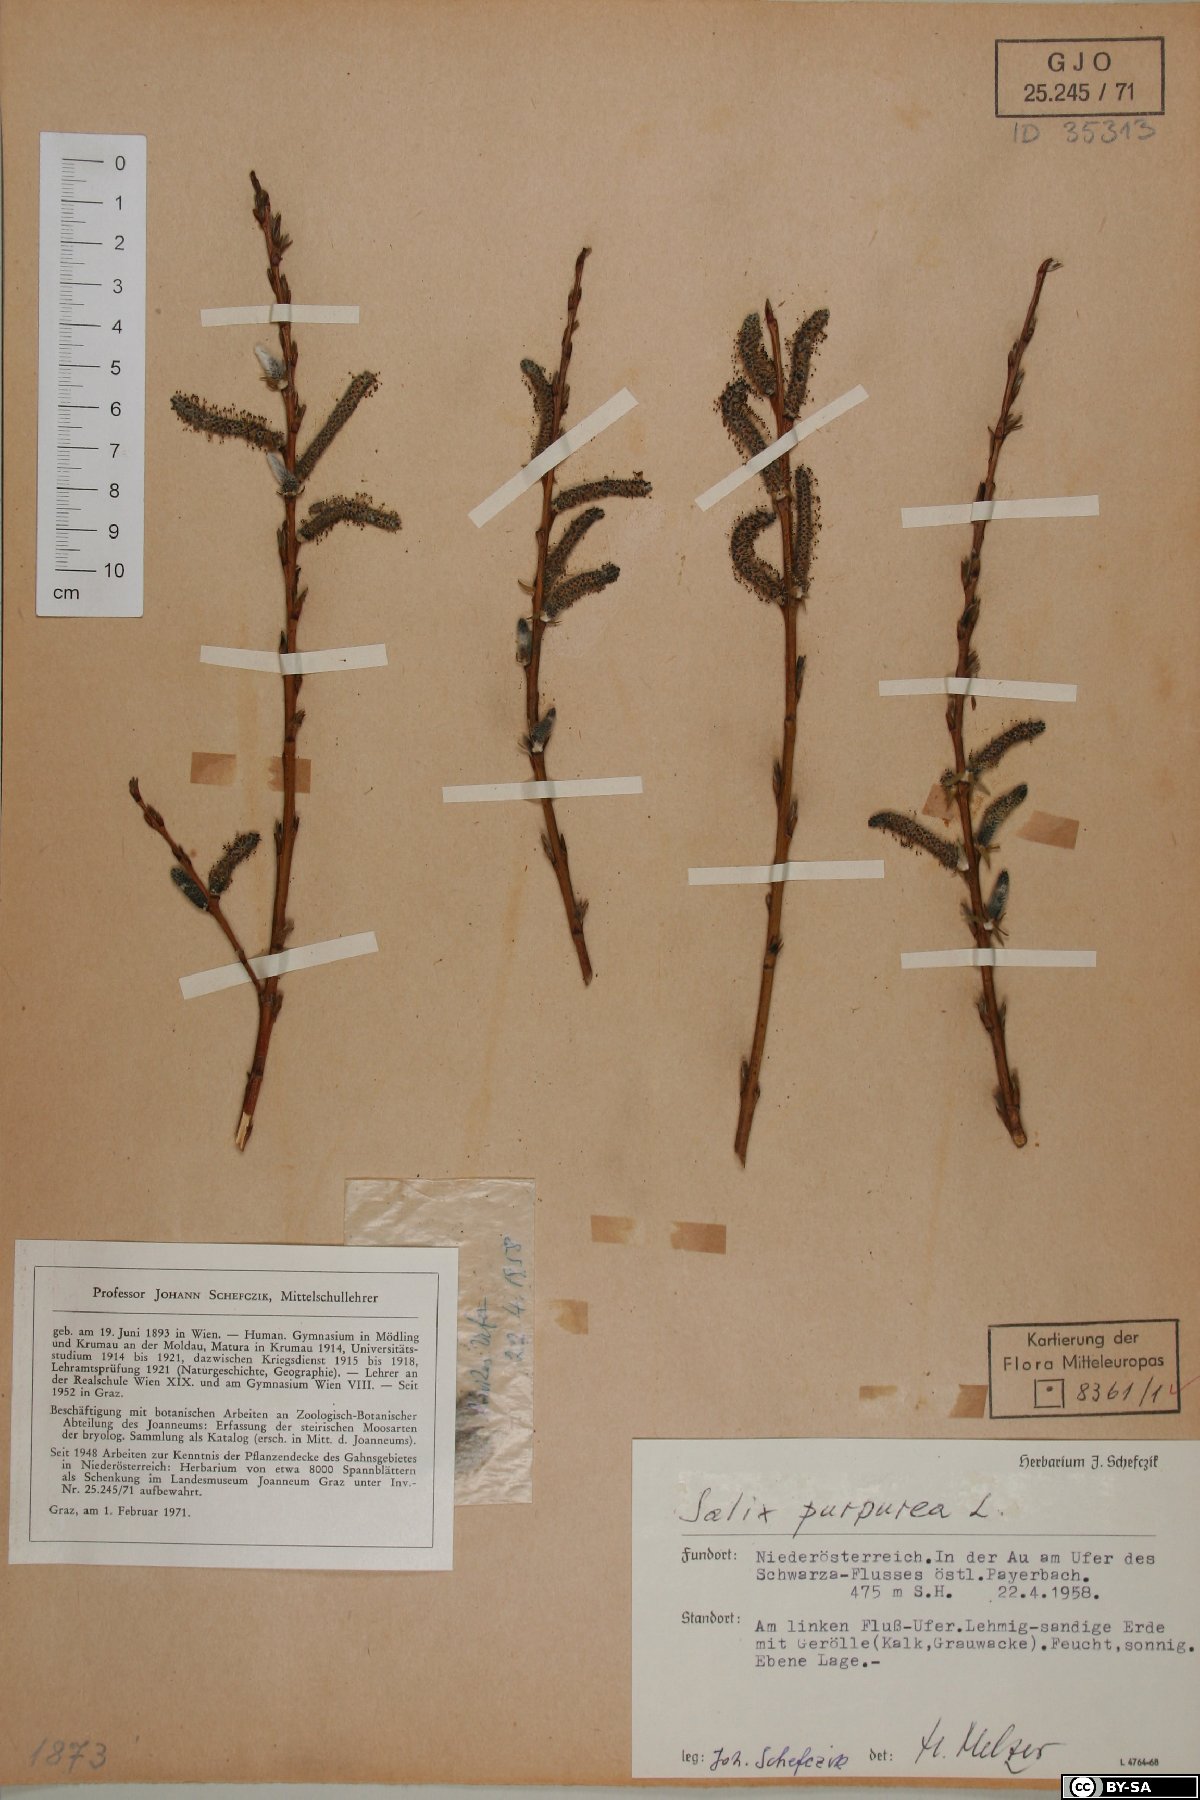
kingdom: Plantae
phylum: Tracheophyta
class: Magnoliopsida
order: Malpighiales
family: Salicaceae
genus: Salix
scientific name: Salix purpurea
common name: Purple willow
